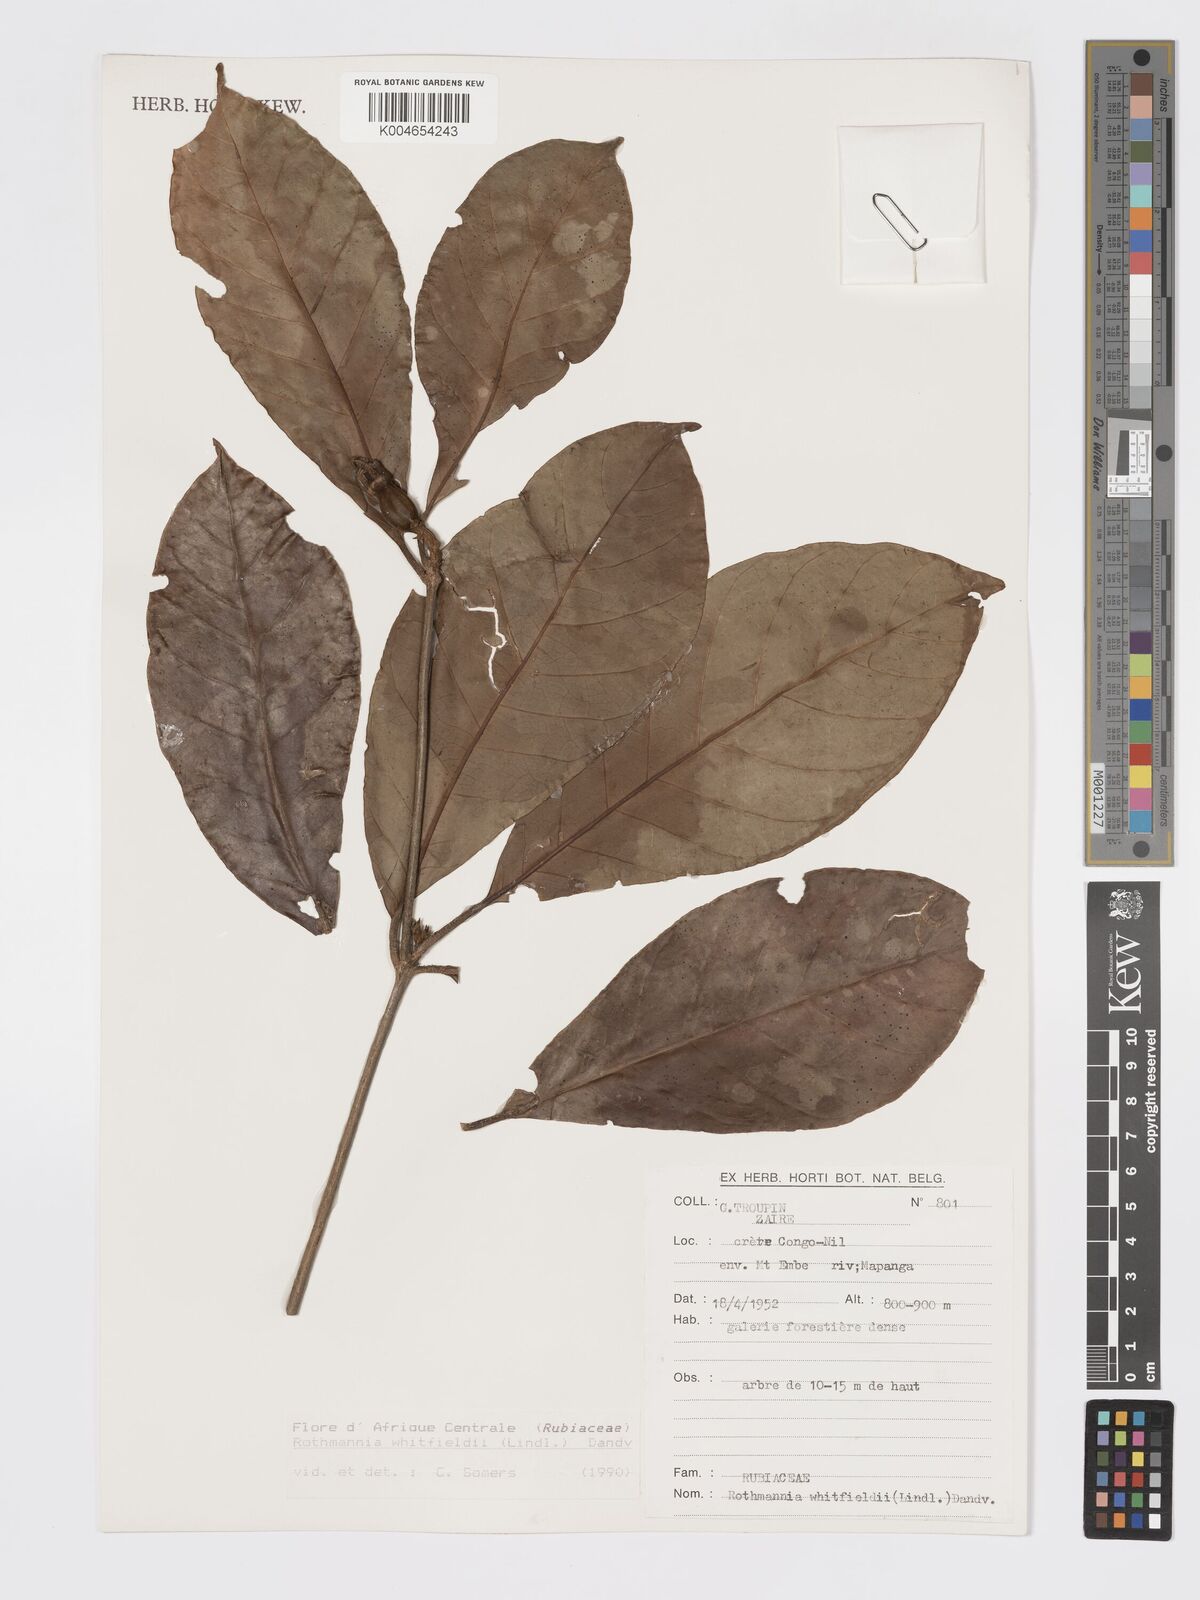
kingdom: Plantae
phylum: Tracheophyta
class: Magnoliopsida
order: Gentianales
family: Rubiaceae
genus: Rothmannia
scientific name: Rothmannia whitfieldii
